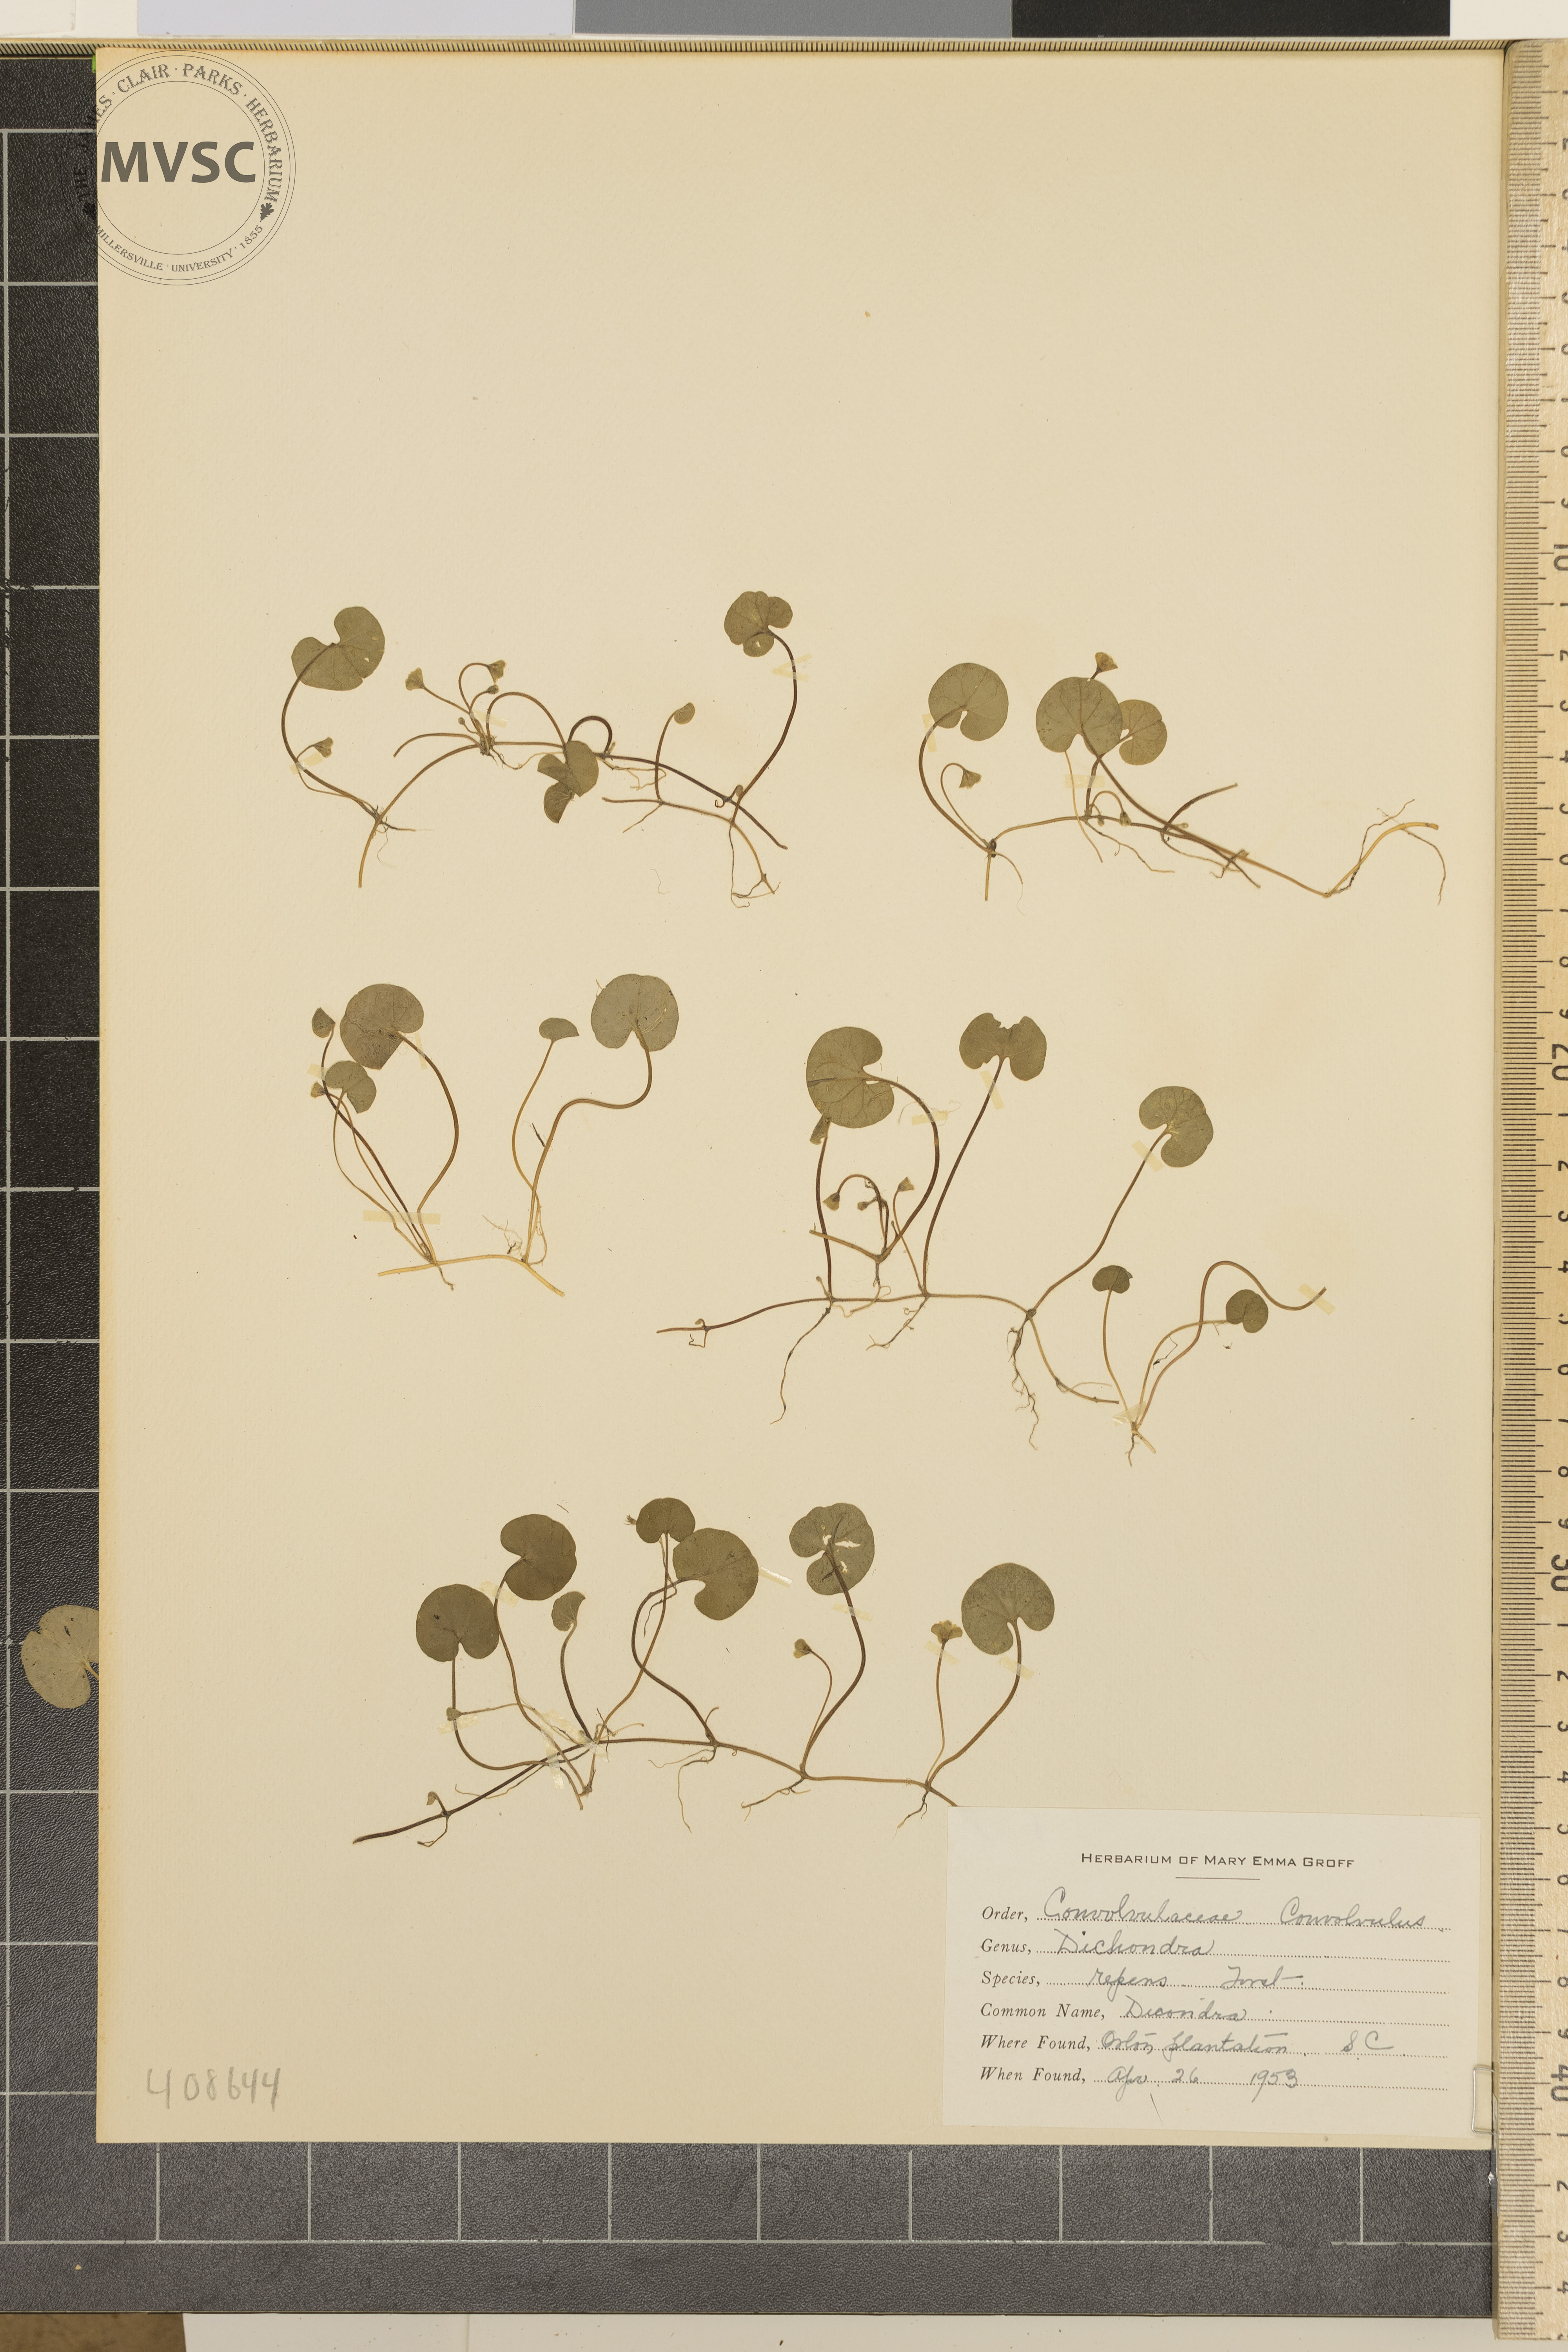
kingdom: Plantae
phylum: Tracheophyta
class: Magnoliopsida
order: Solanales
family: Convolvulaceae
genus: Dichondra
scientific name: Dichondra repens
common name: Dicondra
